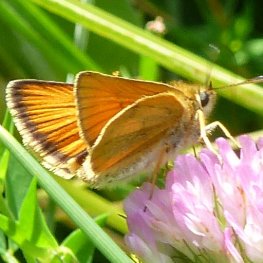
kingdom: Animalia
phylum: Arthropoda
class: Insecta
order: Lepidoptera
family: Hesperiidae
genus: Thymelicus
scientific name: Thymelicus lineola
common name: European Skipper
